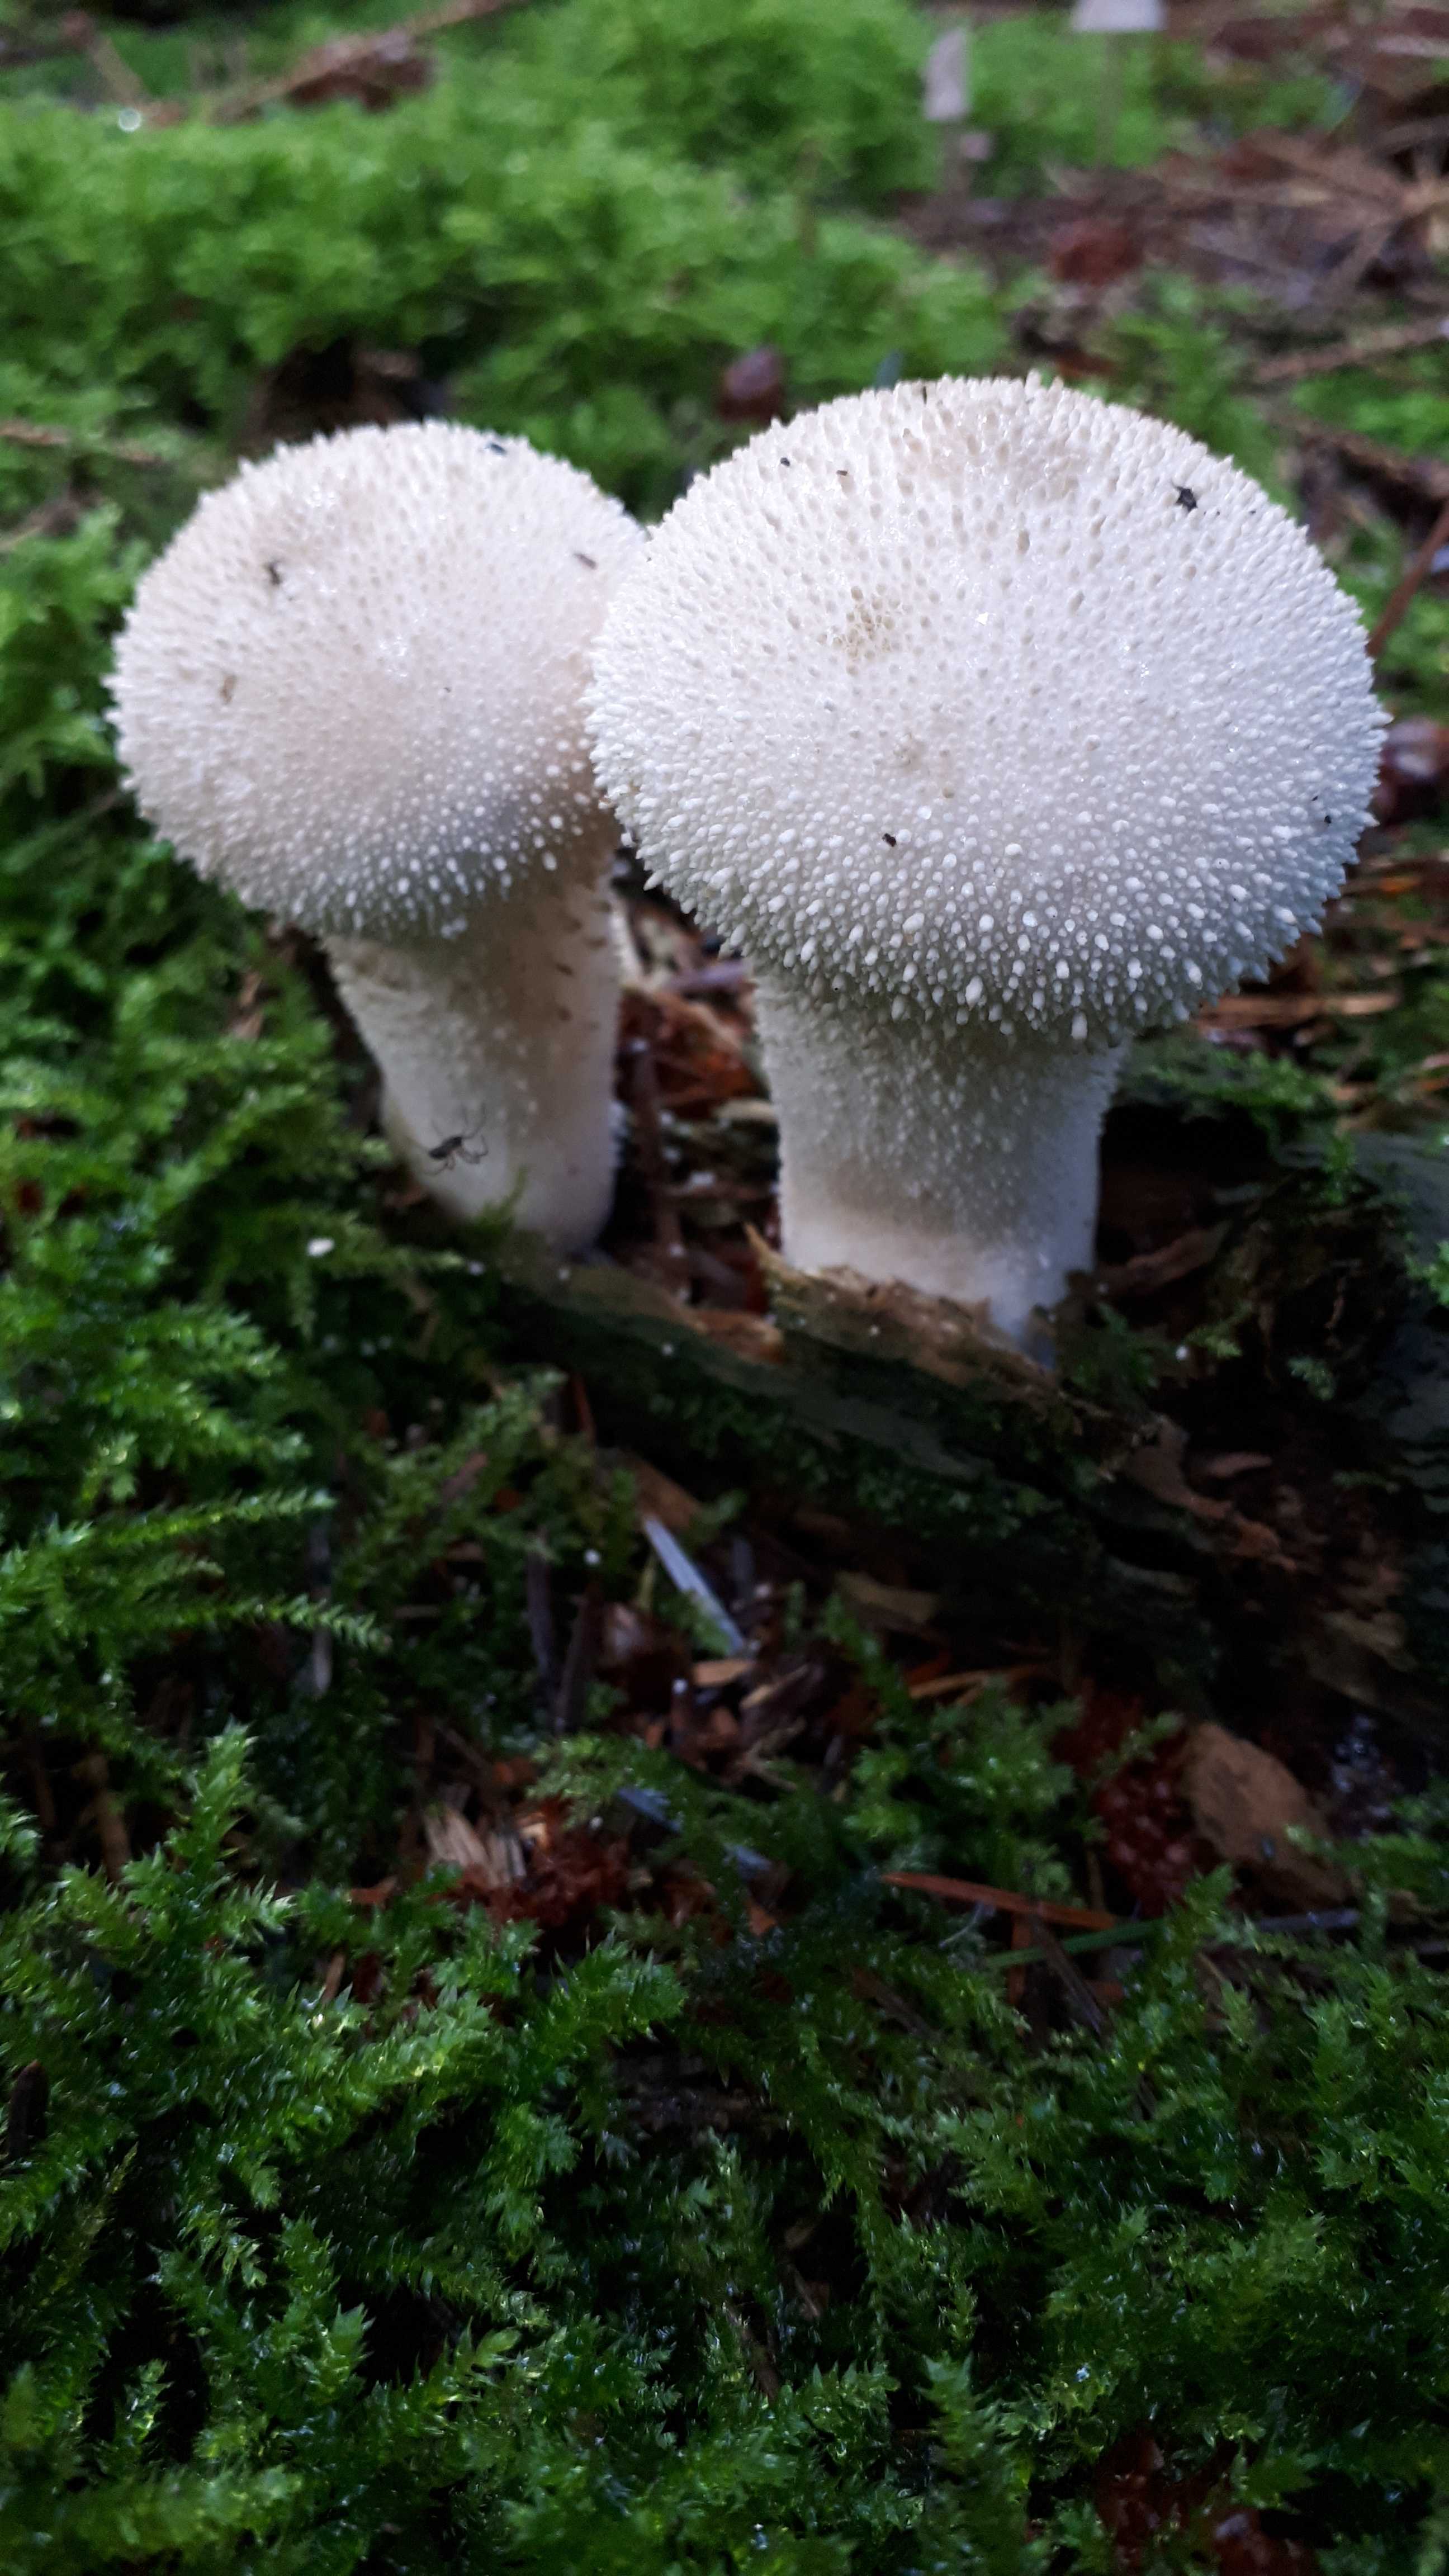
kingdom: Fungi
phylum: Basidiomycota
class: Agaricomycetes
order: Agaricales
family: Lycoperdaceae
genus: Lycoperdon
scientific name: Lycoperdon perlatum
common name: krystal-støvbold
